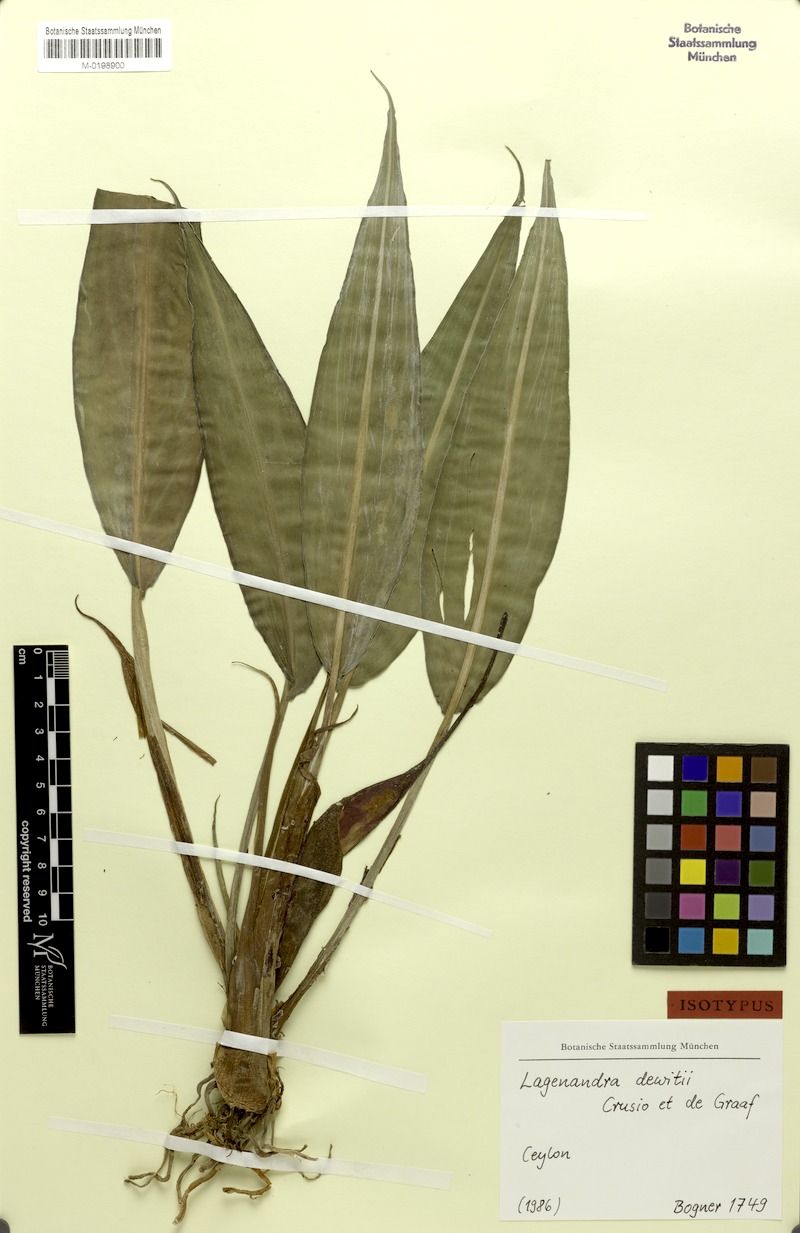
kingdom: Plantae
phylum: Tracheophyta
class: Liliopsida
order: Alismatales
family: Araceae
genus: Lagenandra
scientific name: Lagenandra dewitii
